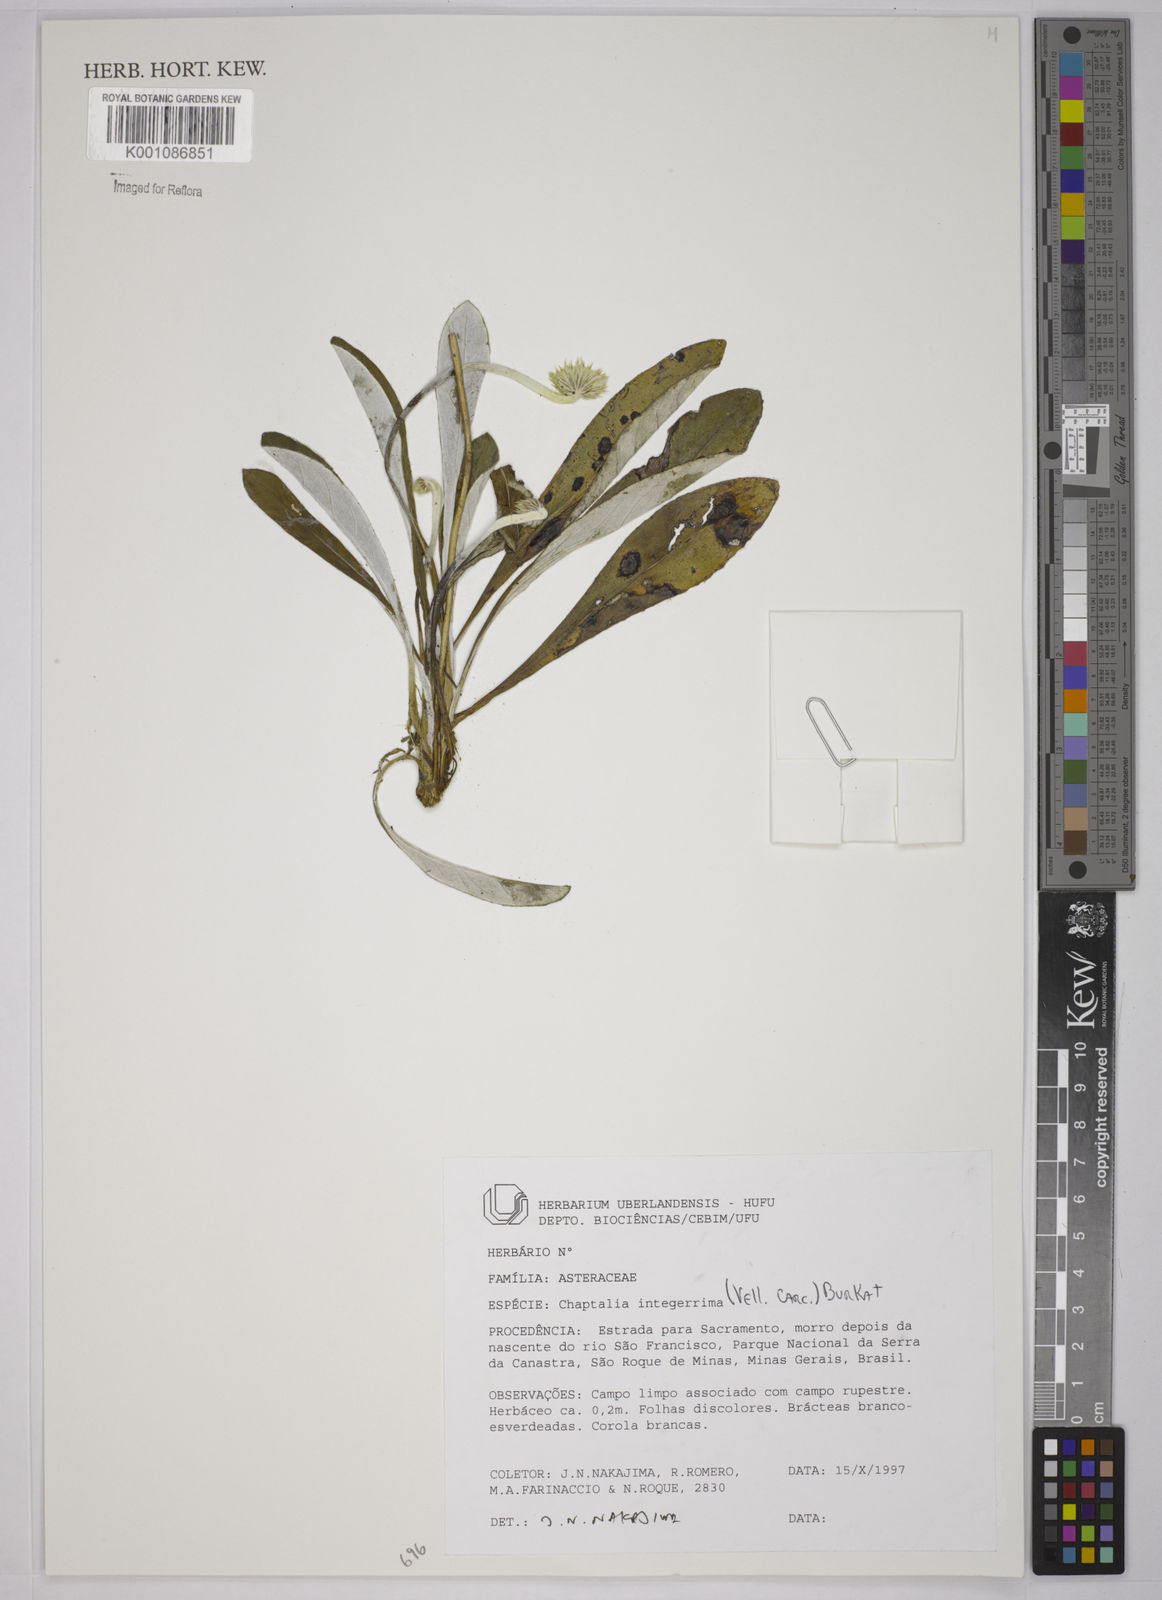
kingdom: Plantae
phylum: Tracheophyta
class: Magnoliopsida
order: Asterales
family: Asteraceae
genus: Chaptalia
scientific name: Chaptalia integerrima
